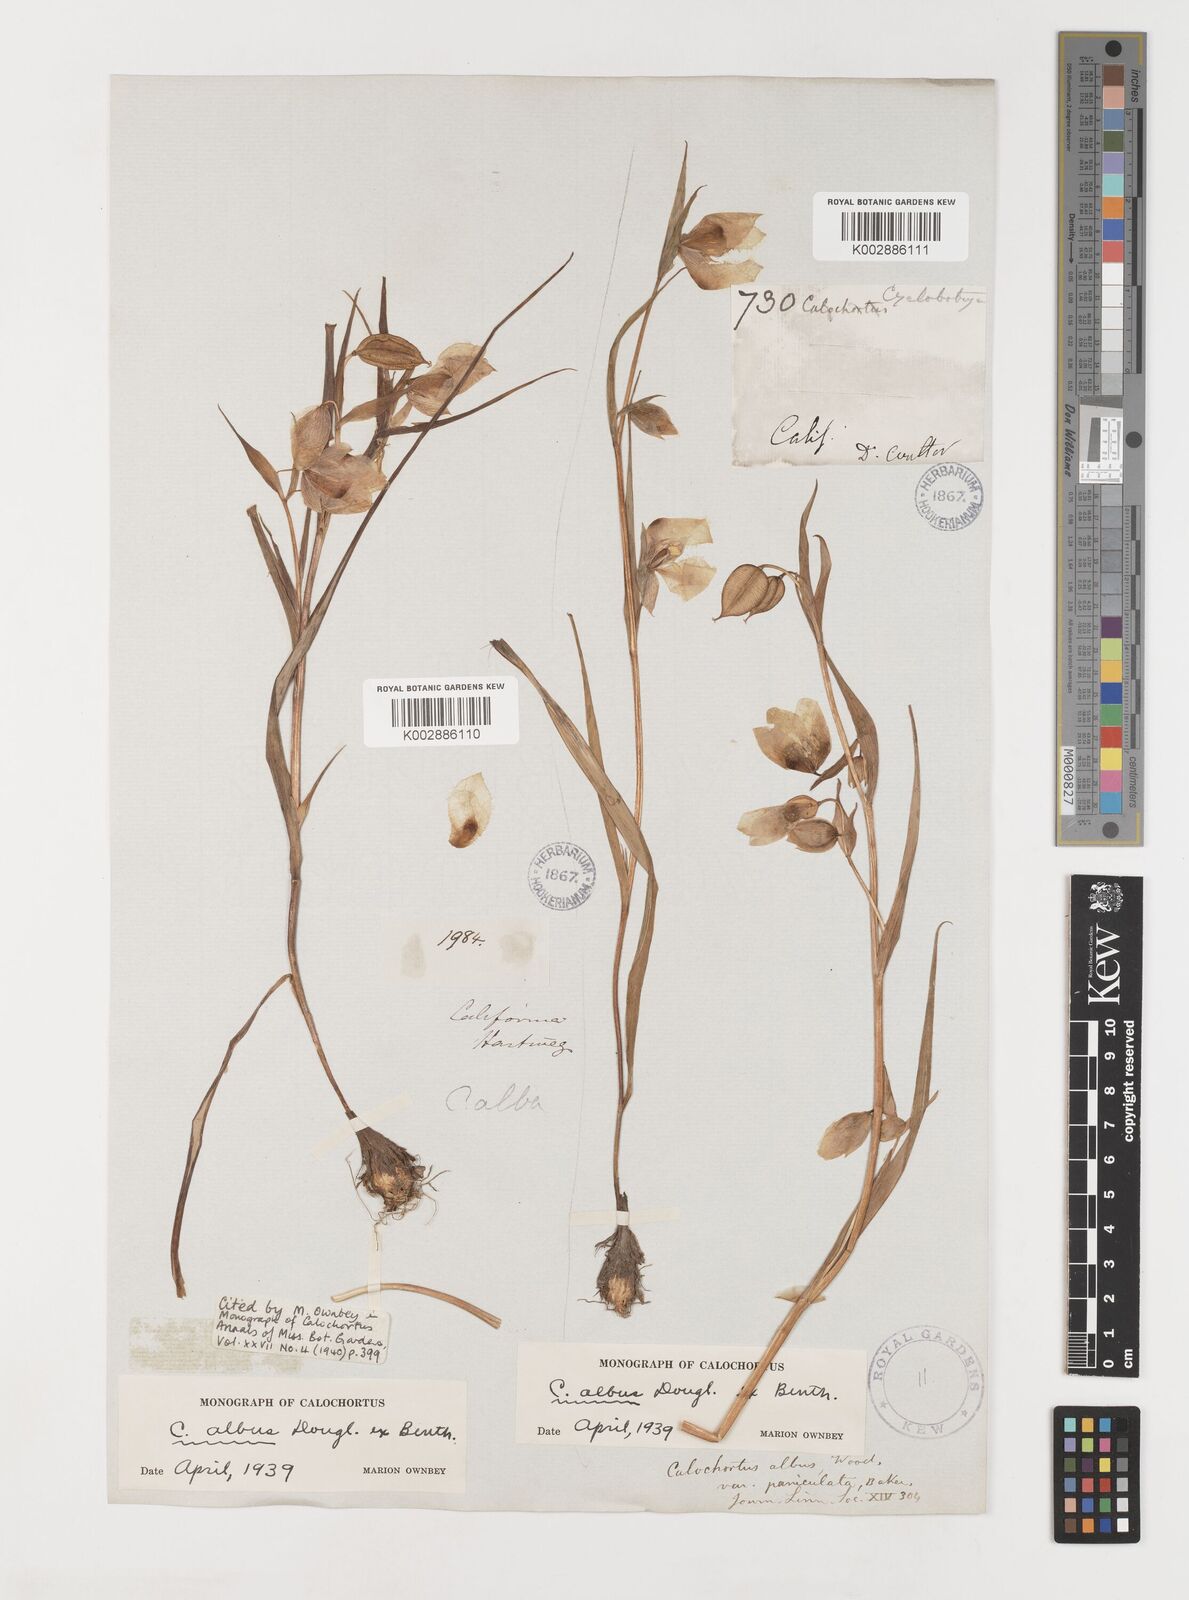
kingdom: Plantae
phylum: Tracheophyta
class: Liliopsida
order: Liliales
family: Liliaceae
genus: Calochortus
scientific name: Calochortus albus
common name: Fairy-lantern
